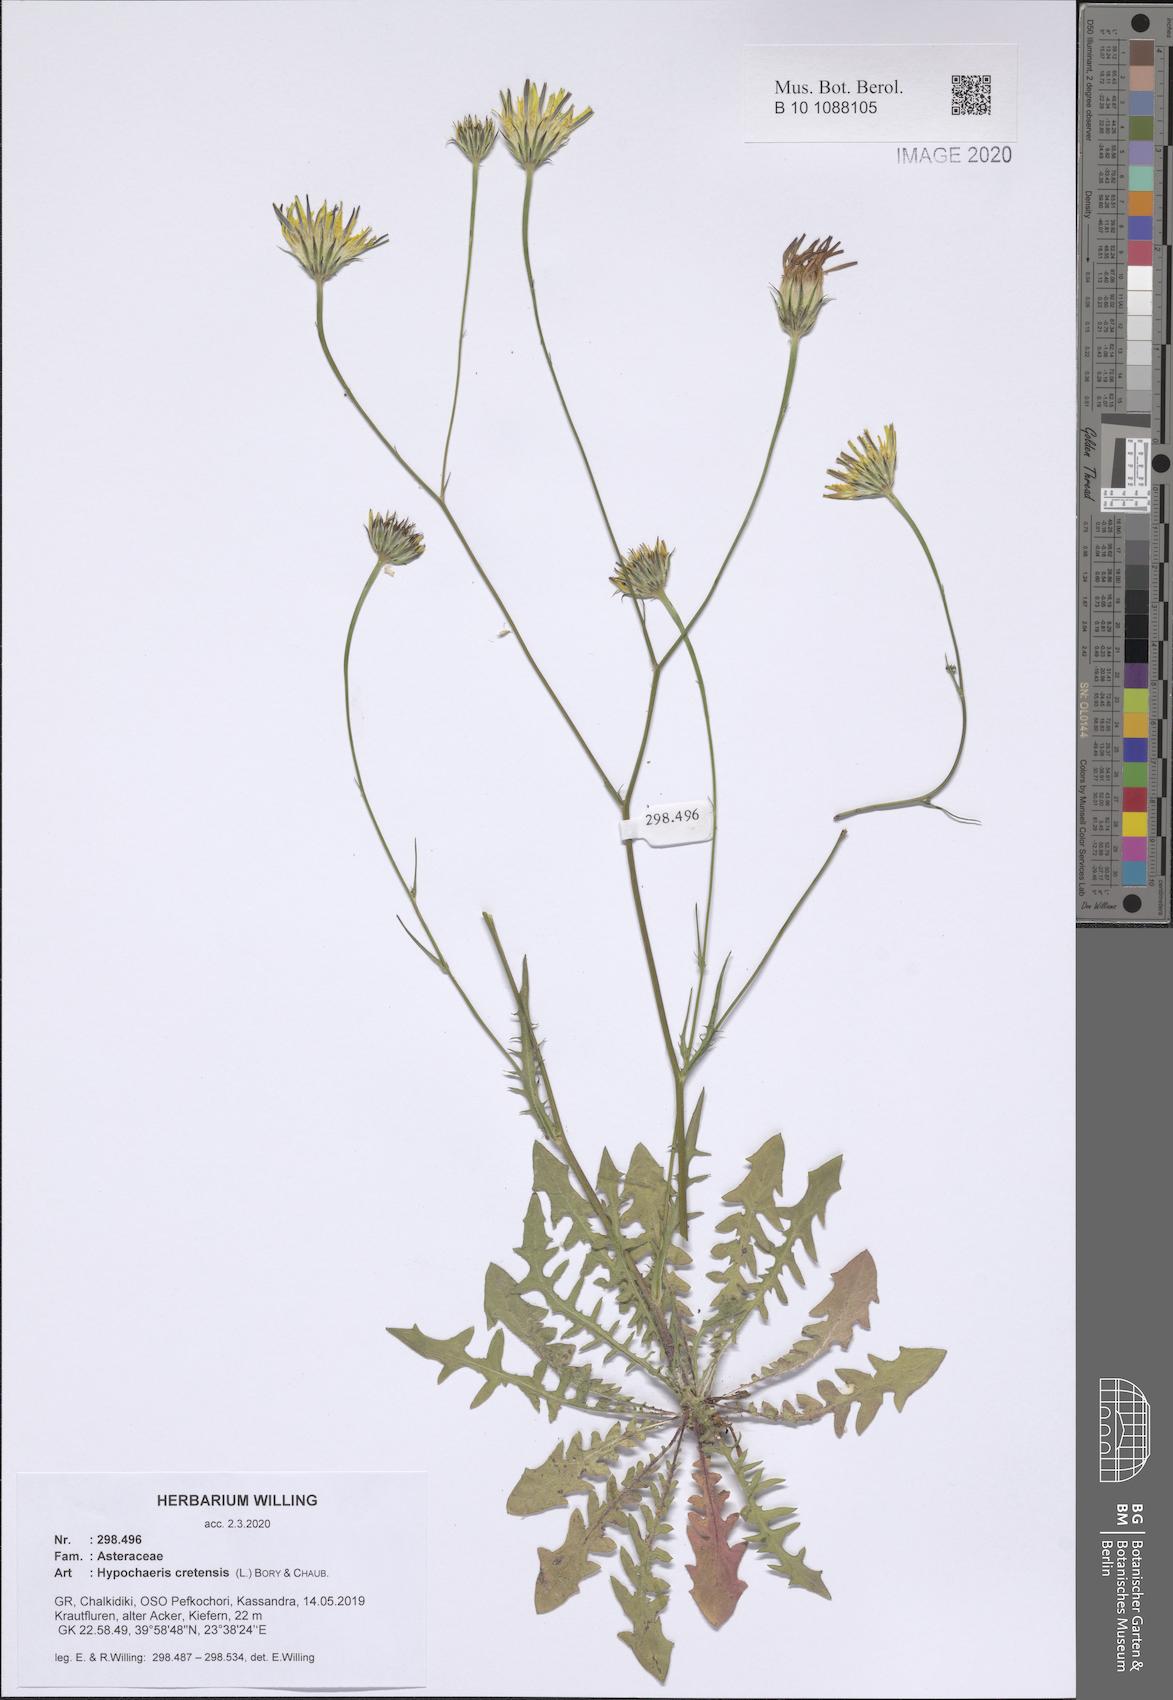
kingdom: Plantae
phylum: Tracheophyta
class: Magnoliopsida
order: Asterales
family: Asteraceae
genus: Hypochaeris
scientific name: Hypochaeris cretensis
